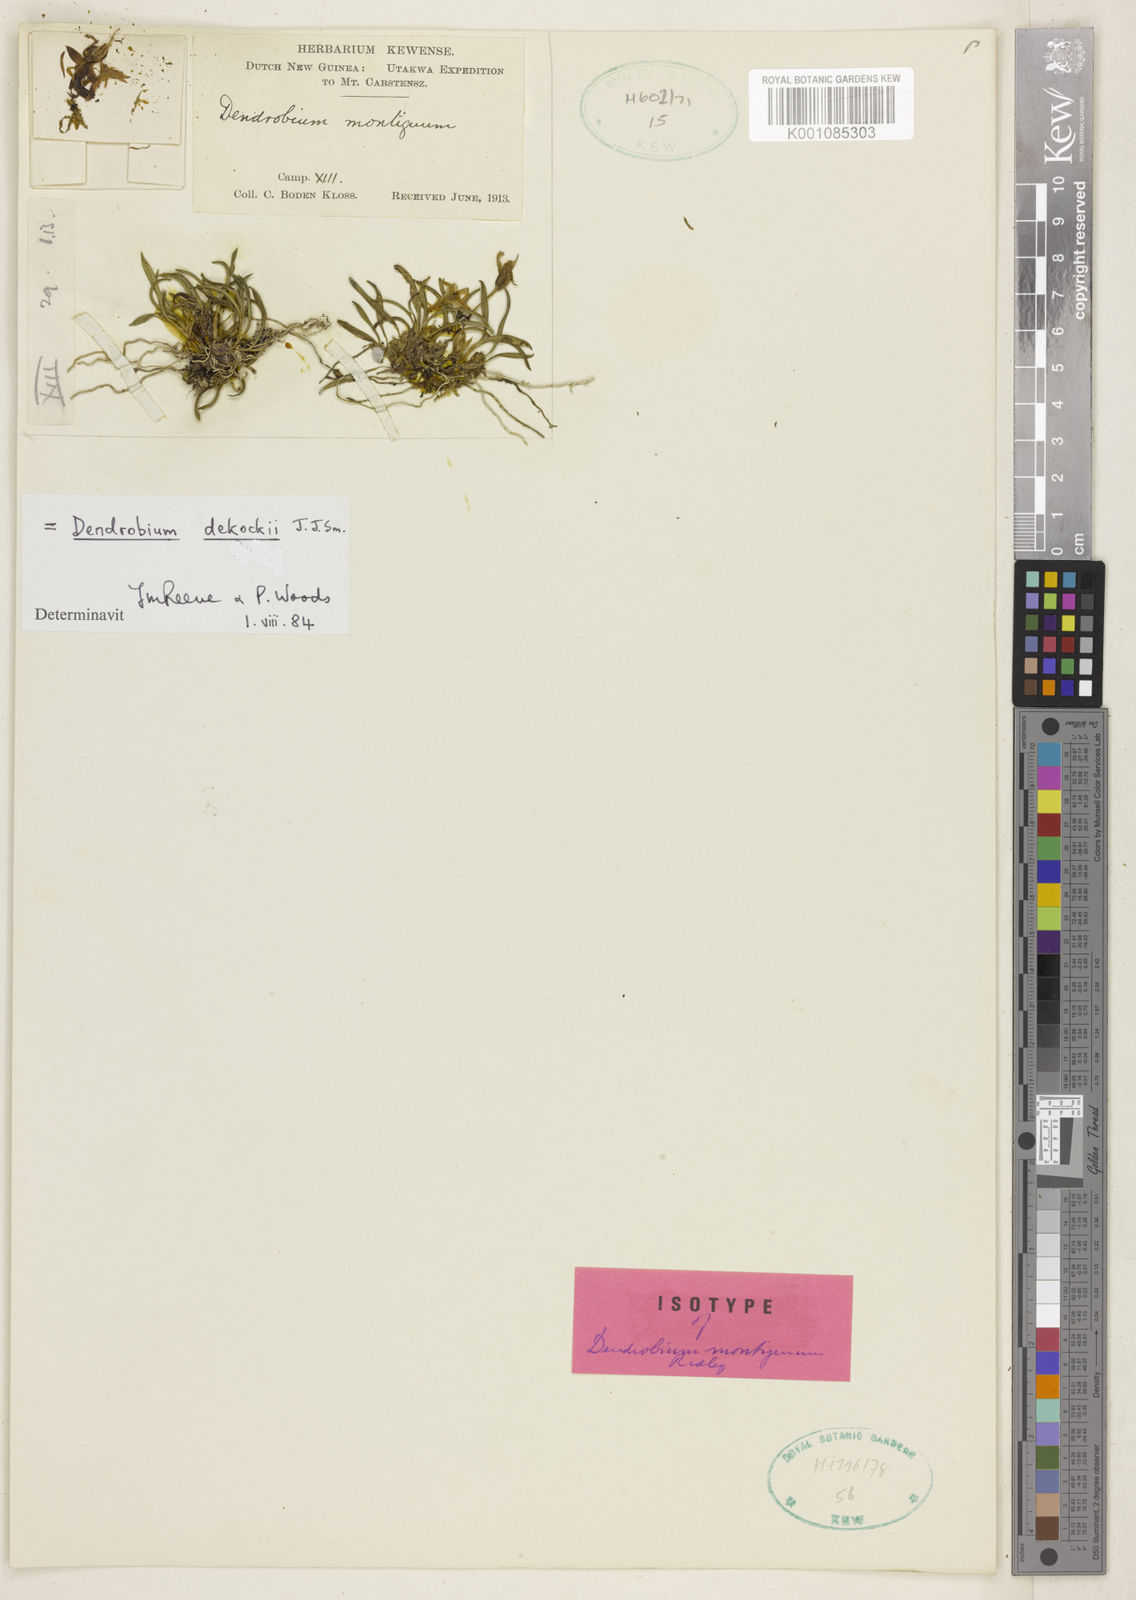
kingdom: Plantae
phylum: Tracheophyta
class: Liliopsida
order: Asparagales
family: Orchidaceae
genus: Dendrobium
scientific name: Dendrobium dekockii
